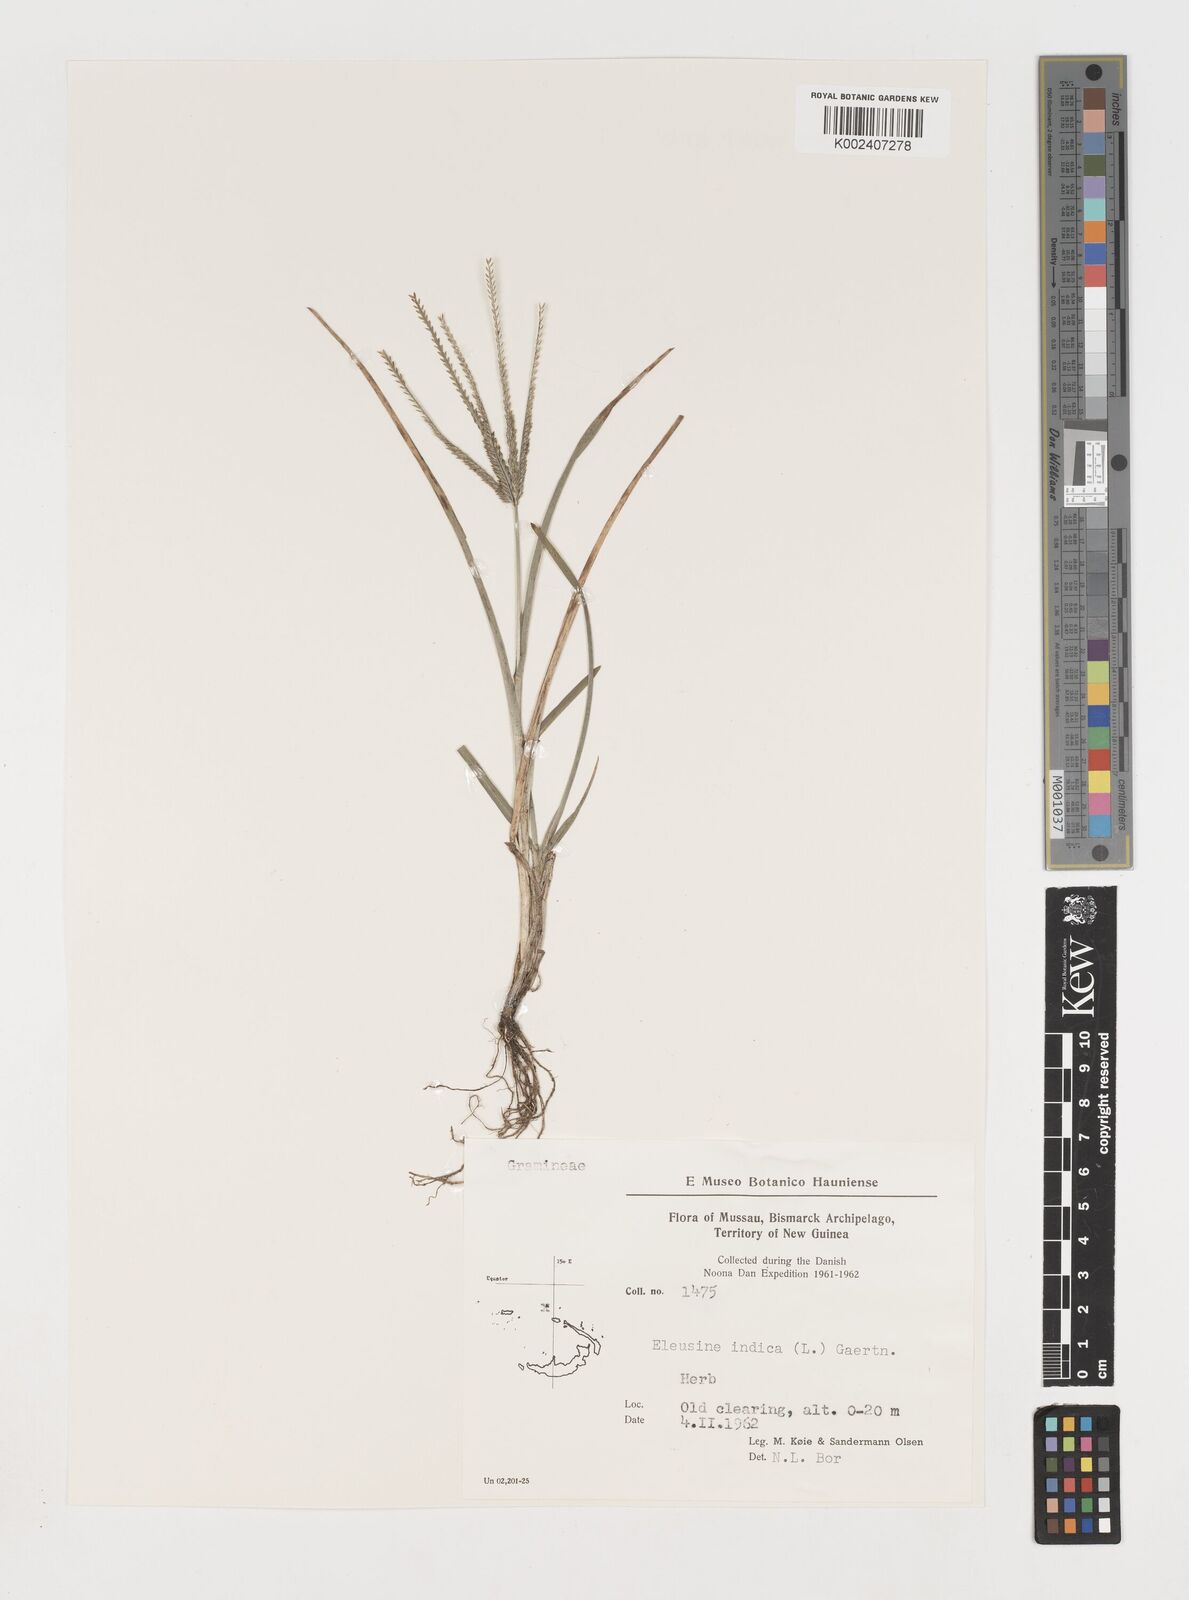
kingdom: Plantae
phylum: Tracheophyta
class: Liliopsida
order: Poales
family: Poaceae
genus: Eleusine
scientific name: Eleusine indica
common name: Yard-grass
